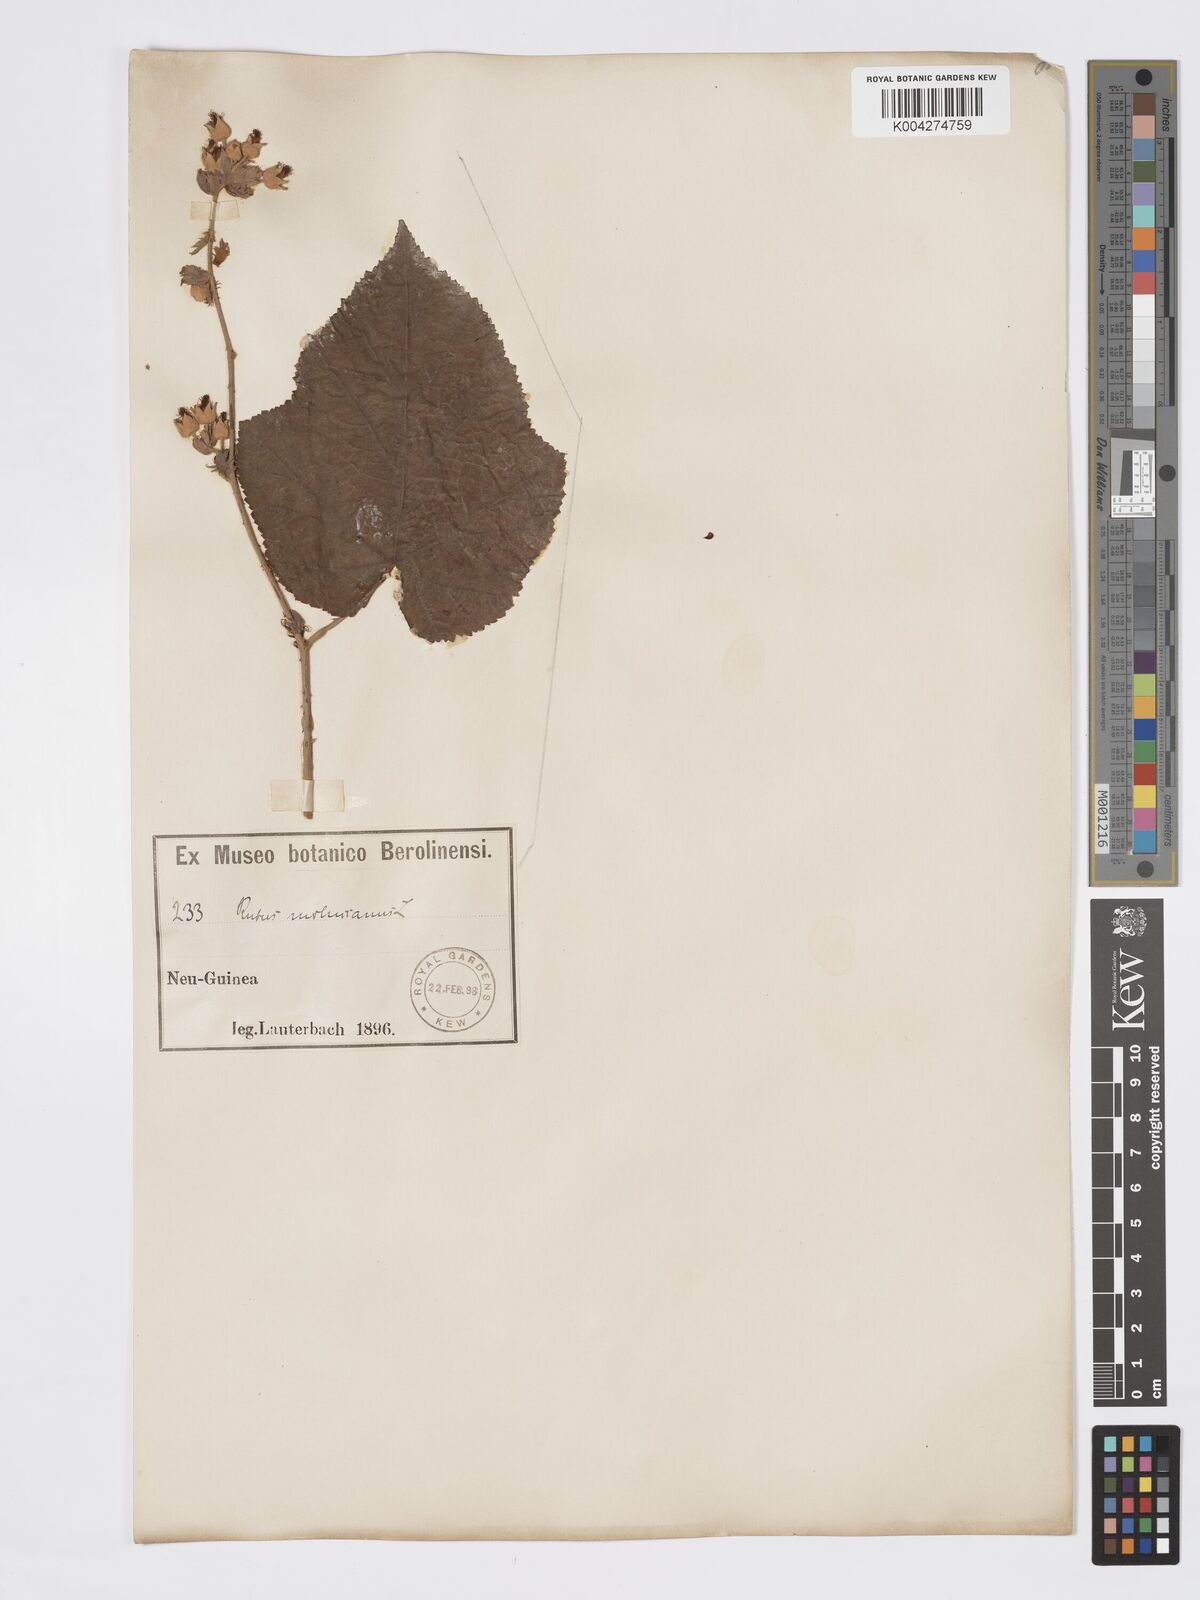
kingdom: Plantae
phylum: Tracheophyta
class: Magnoliopsida
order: Rosales
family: Rosaceae
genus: Rubus
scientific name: Rubus moluccanus
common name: Wild raspberry
